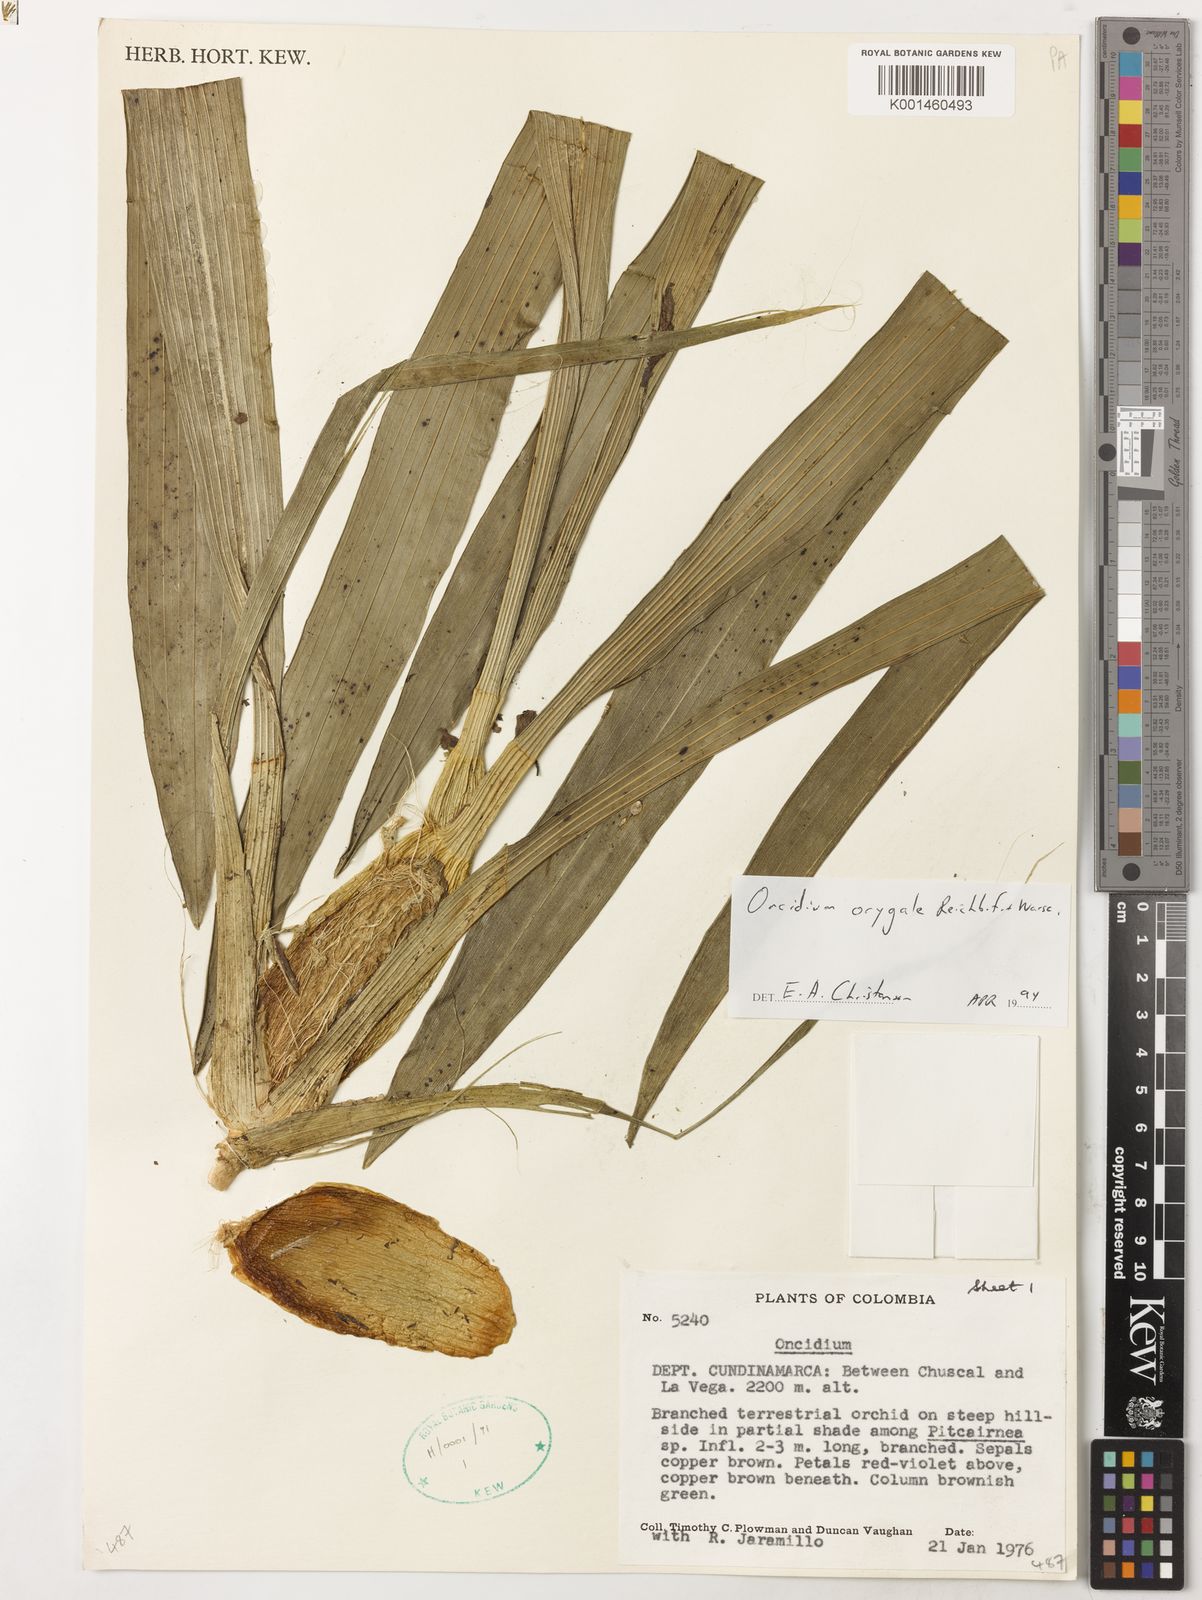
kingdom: Plantae
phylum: Tracheophyta
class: Liliopsida
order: Asparagales
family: Orchidaceae
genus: Cyrtochilum
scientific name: Cyrtochilum orgyale
